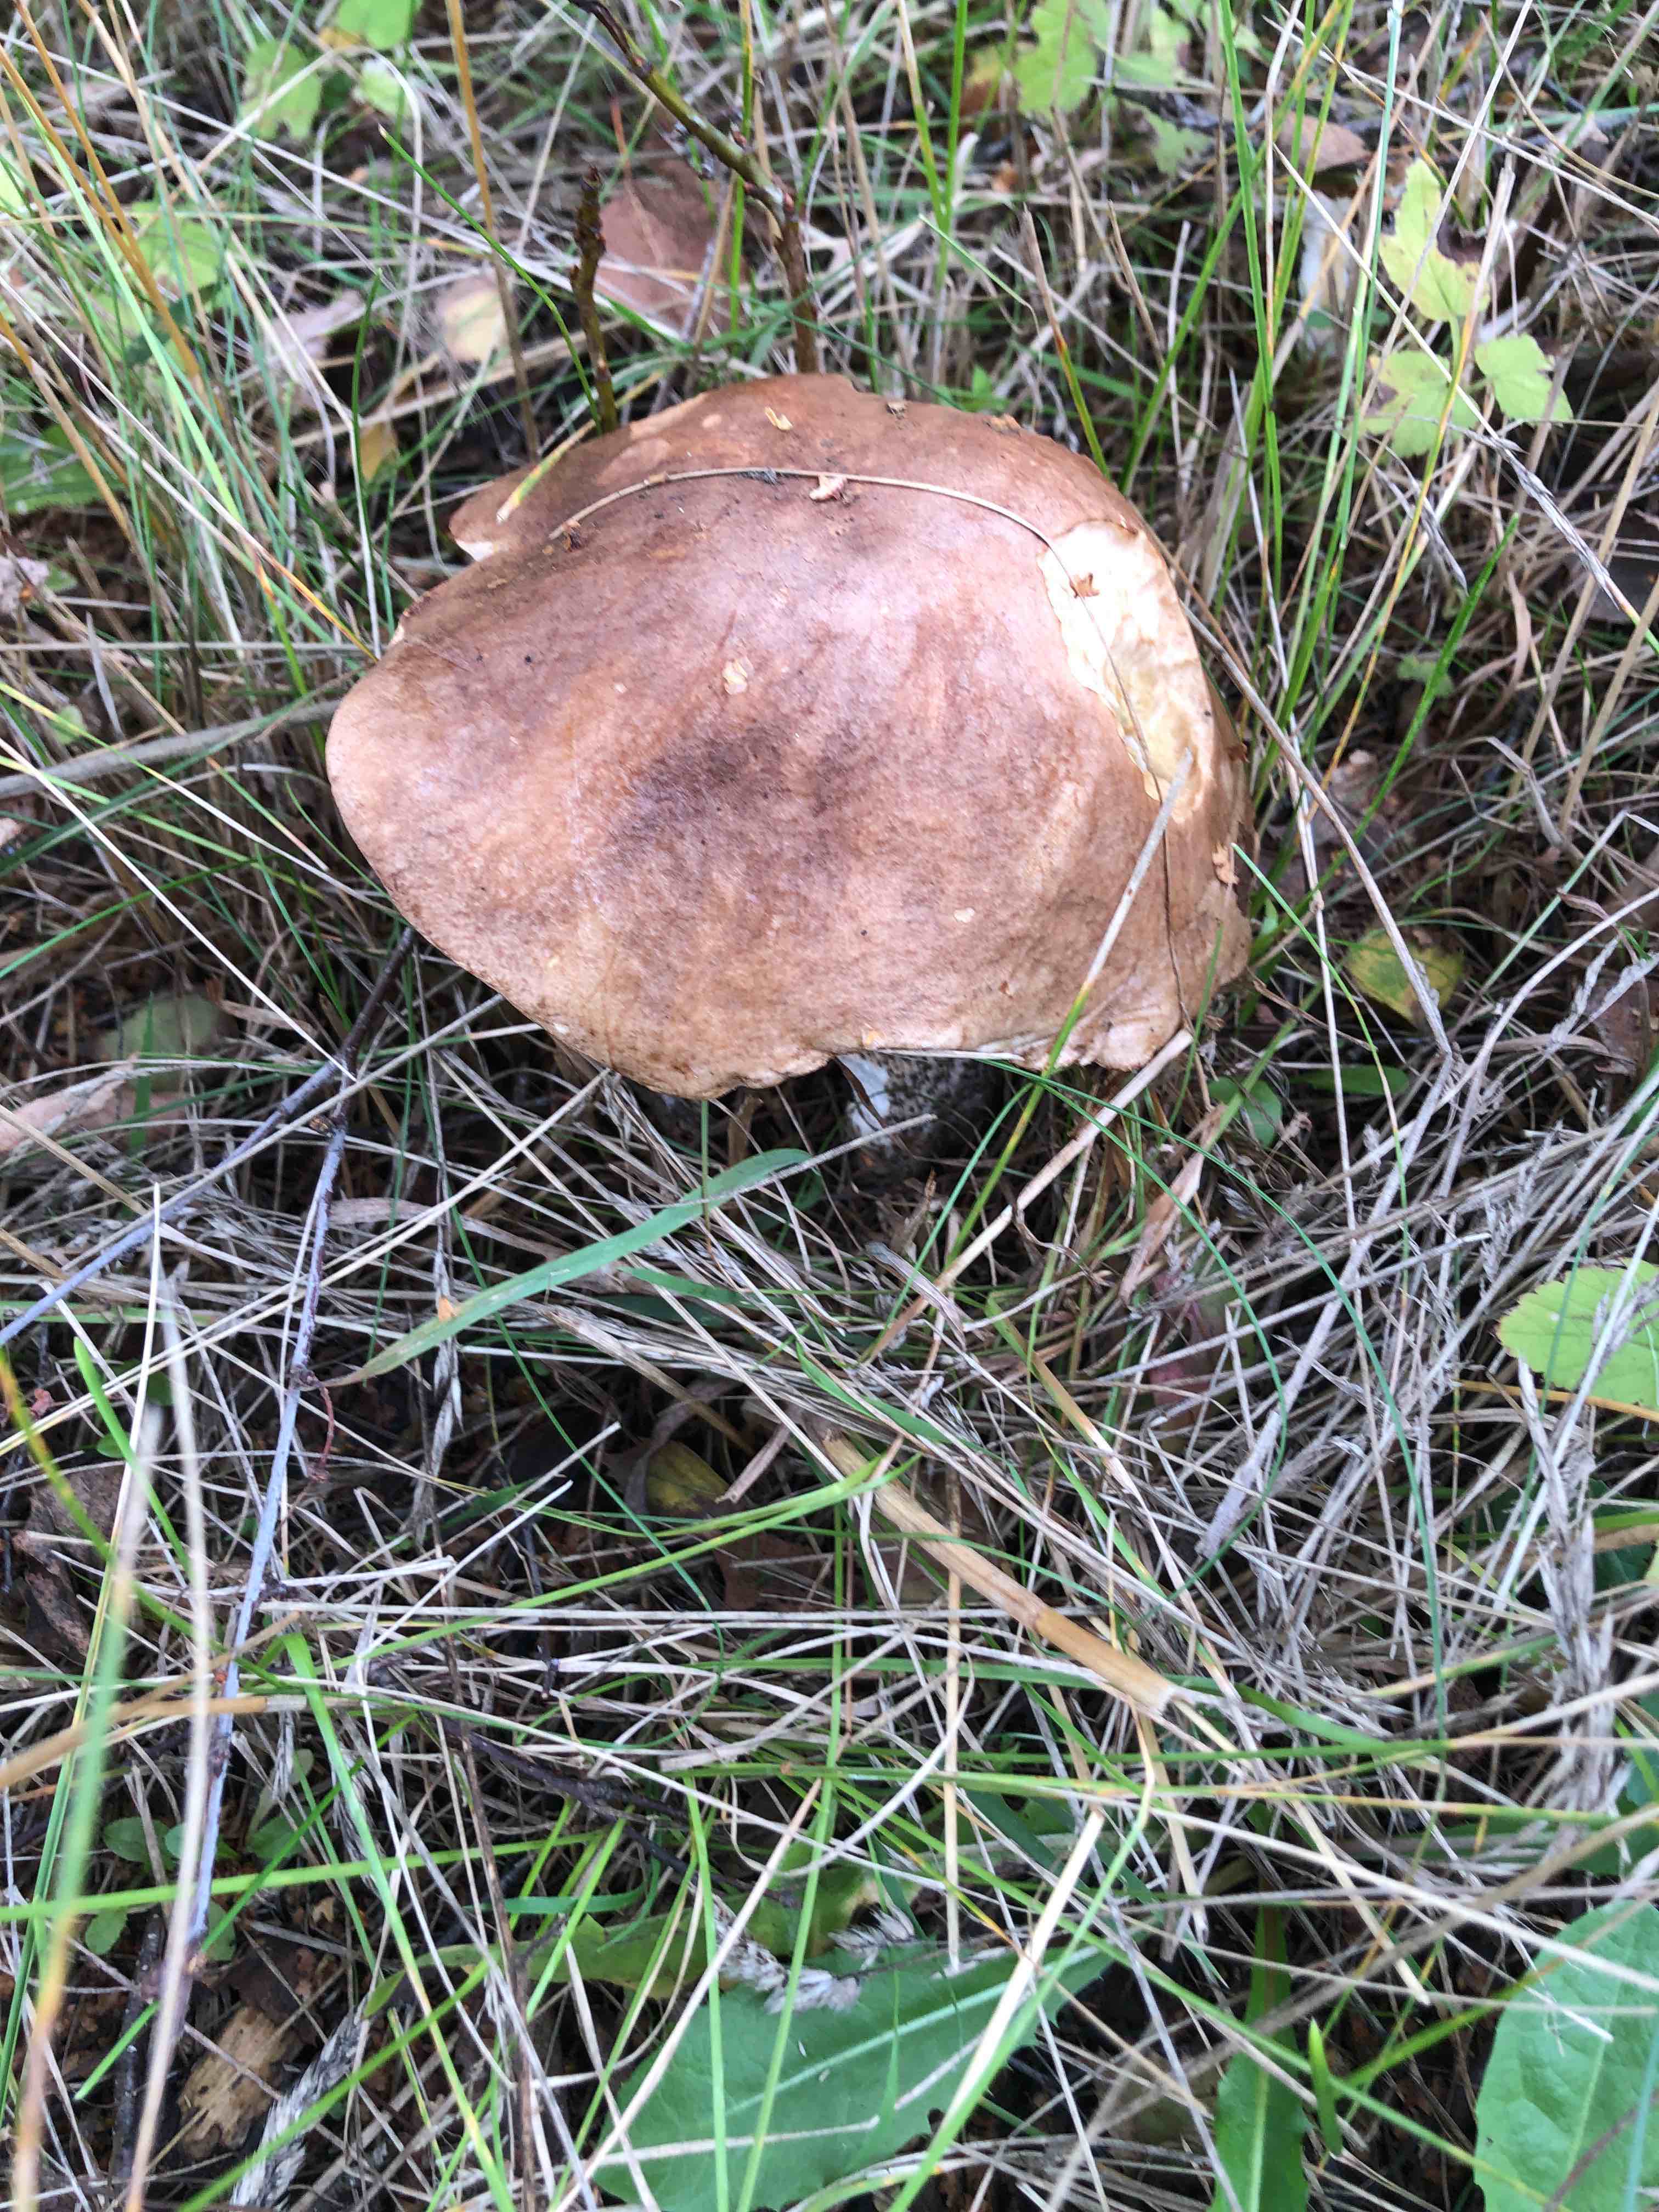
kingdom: Fungi
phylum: Basidiomycota
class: Agaricomycetes
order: Boletales
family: Boletaceae
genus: Leccinum
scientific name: Leccinum
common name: skælrørhat
